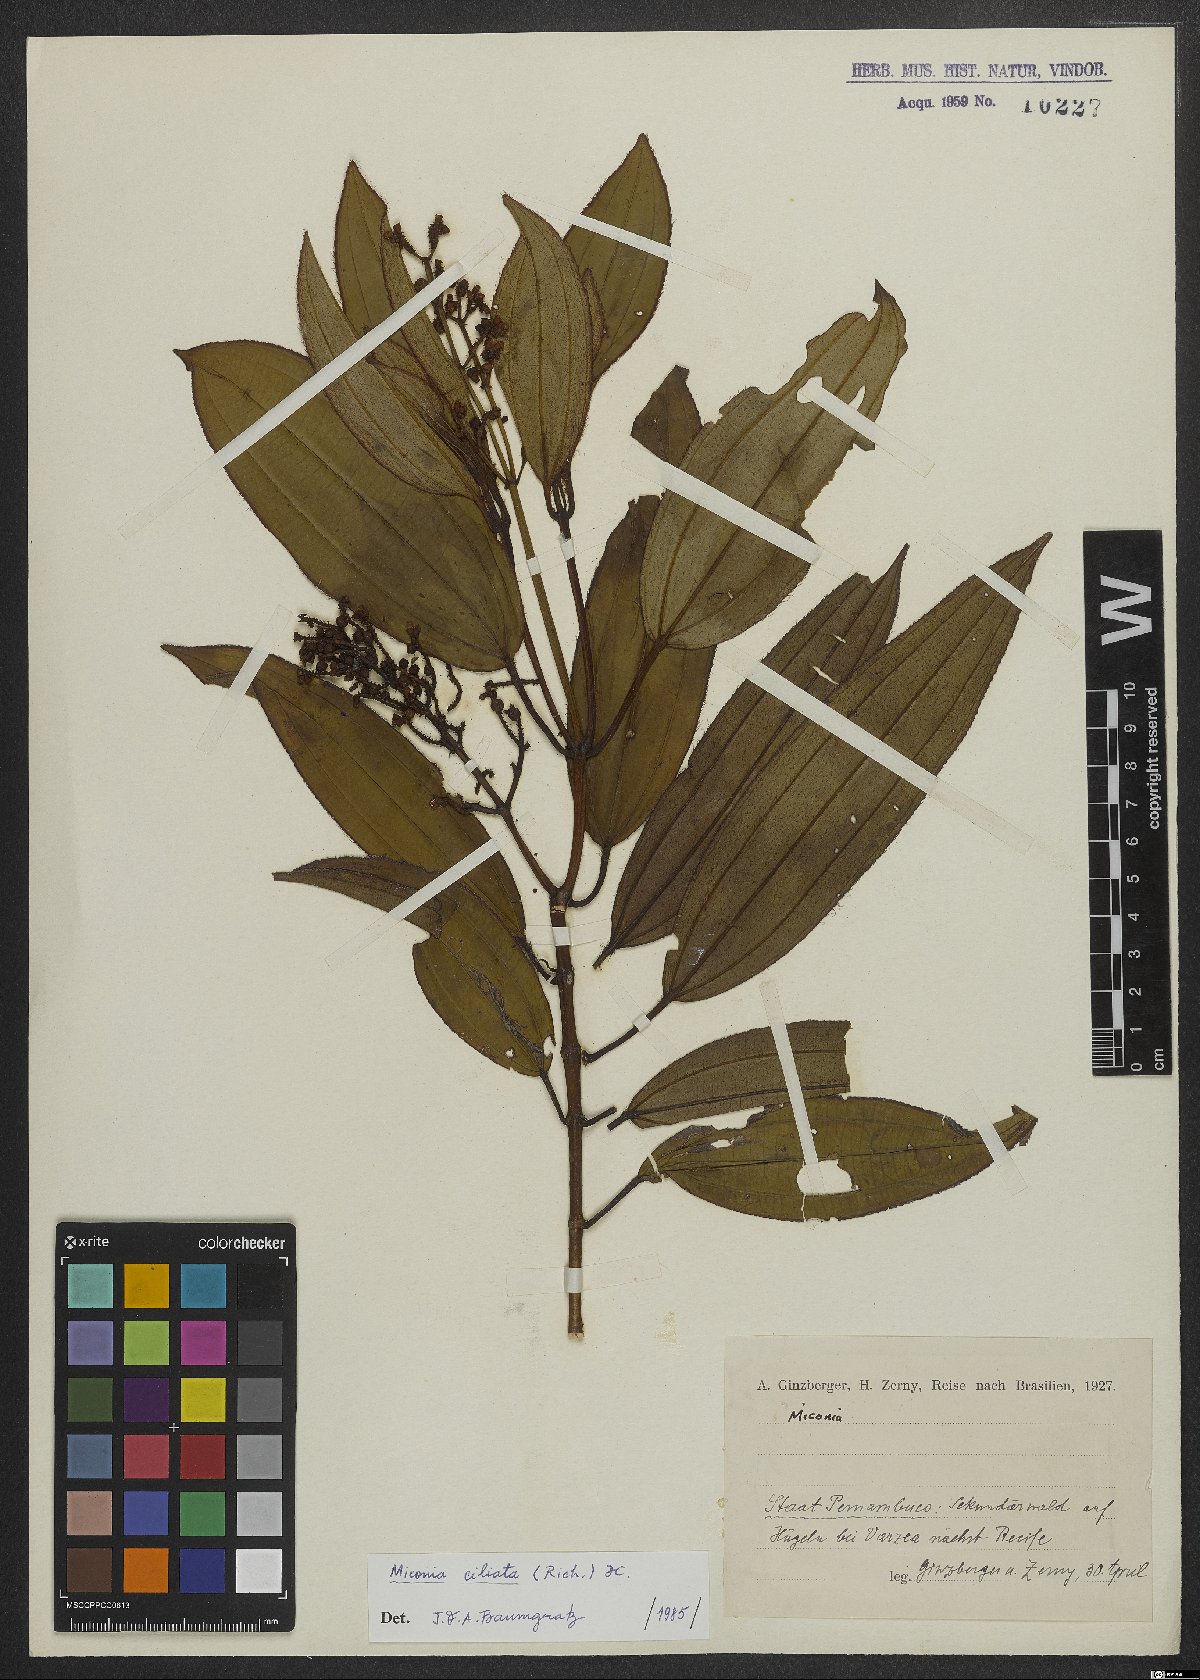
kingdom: Plantae
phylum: Tracheophyta
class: Magnoliopsida
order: Myrtales
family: Melastomataceae
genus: Miconia
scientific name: Miconia ciliata
